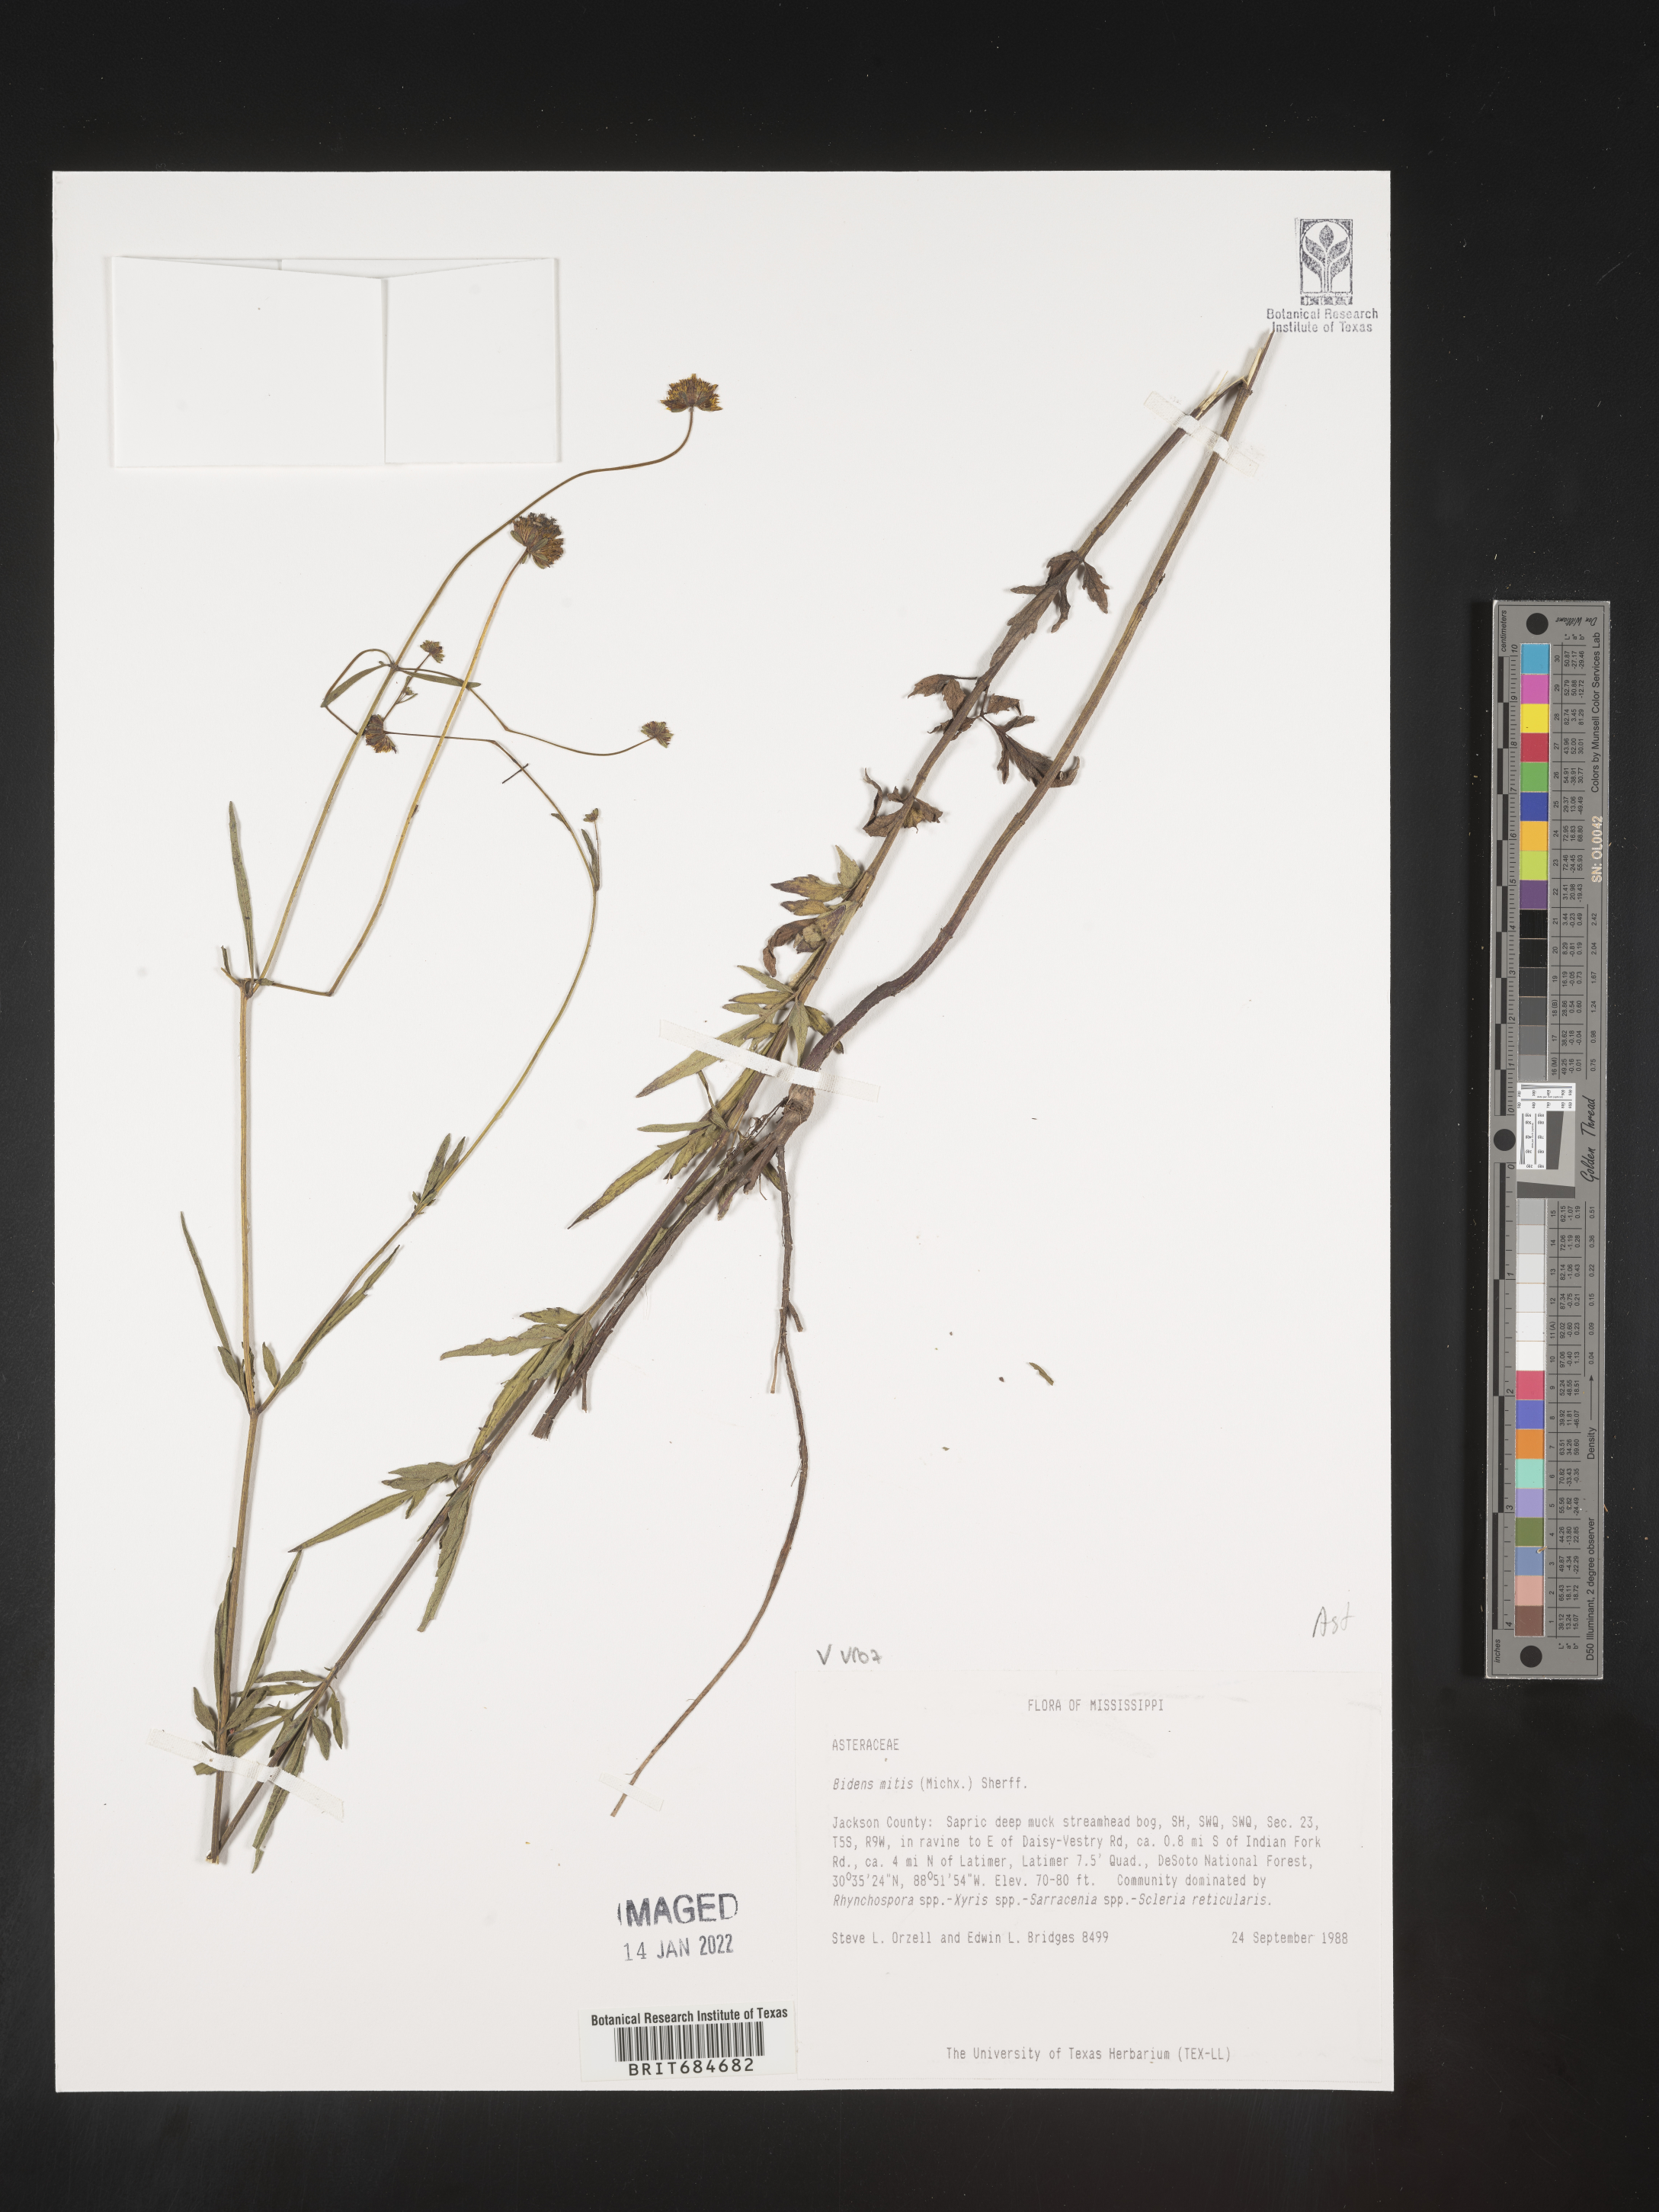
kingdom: Plantae
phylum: Tracheophyta
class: Magnoliopsida
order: Asterales
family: Asteraceae
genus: Bidens
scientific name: Bidens mitis
